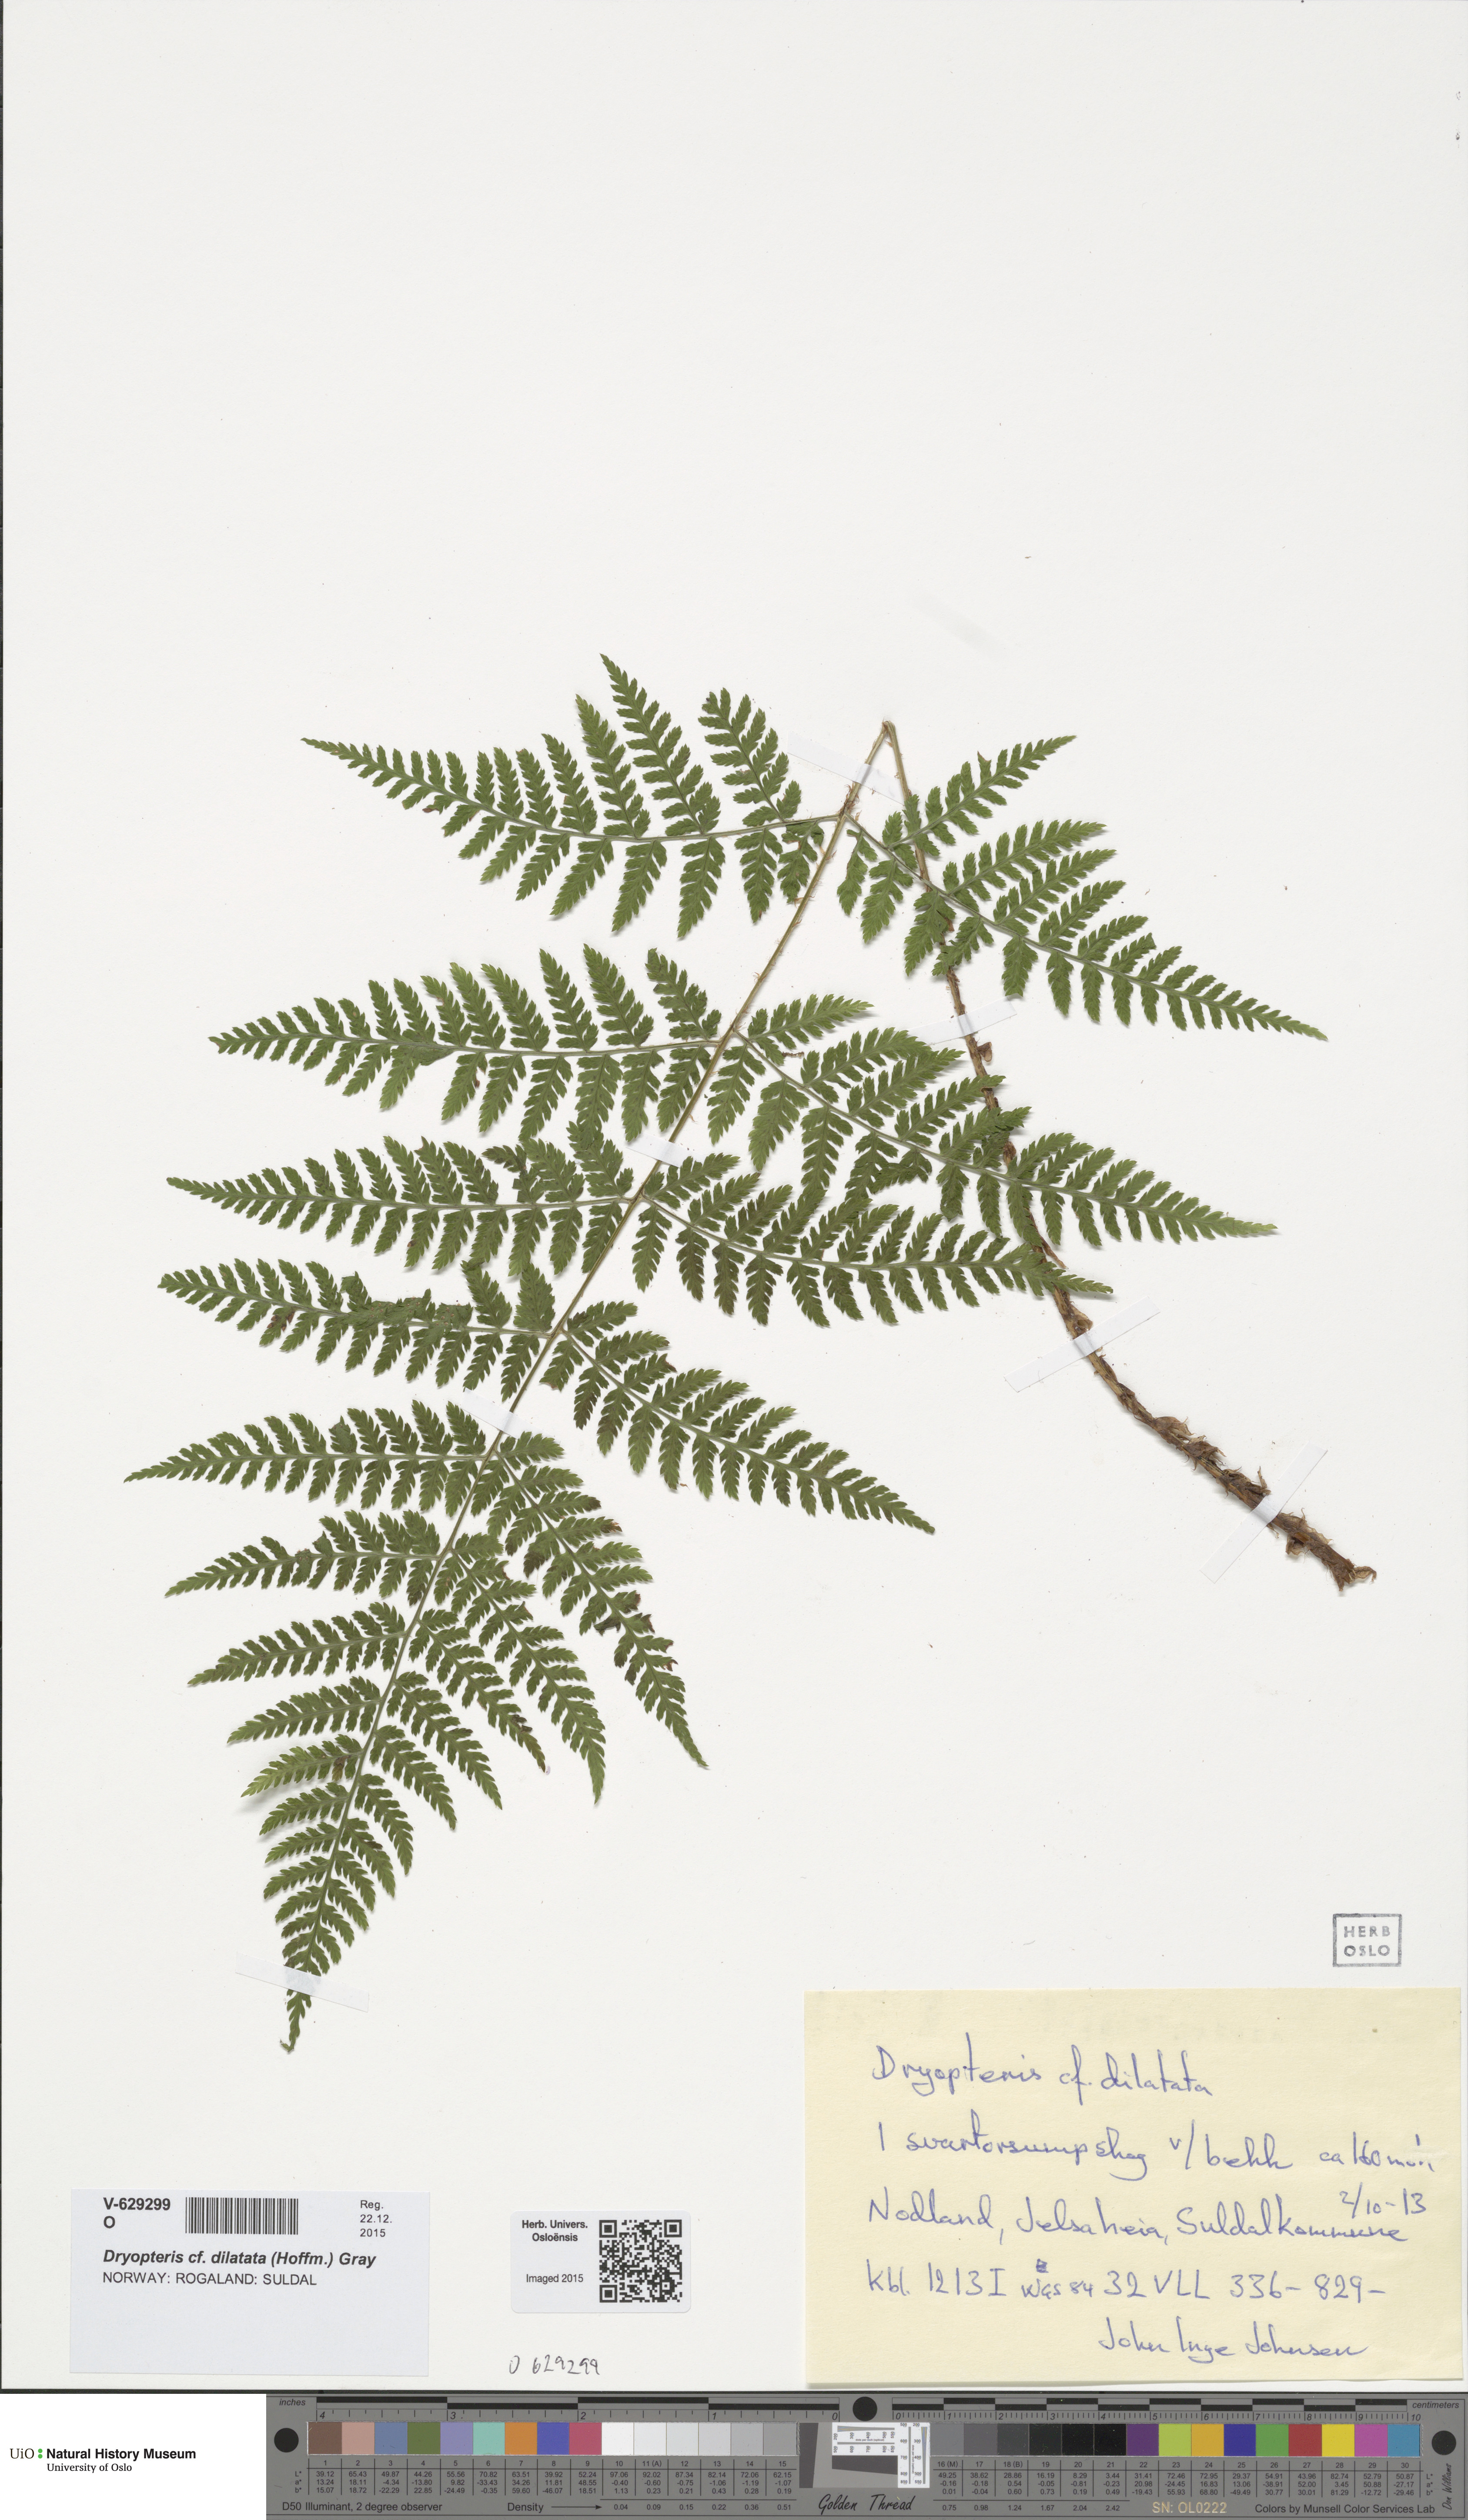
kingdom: Plantae
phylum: Tracheophyta
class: Polypodiopsida
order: Polypodiales
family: Dryopteridaceae
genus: Dryopteris
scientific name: Dryopteris dilatata
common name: Broad buckler-fern
